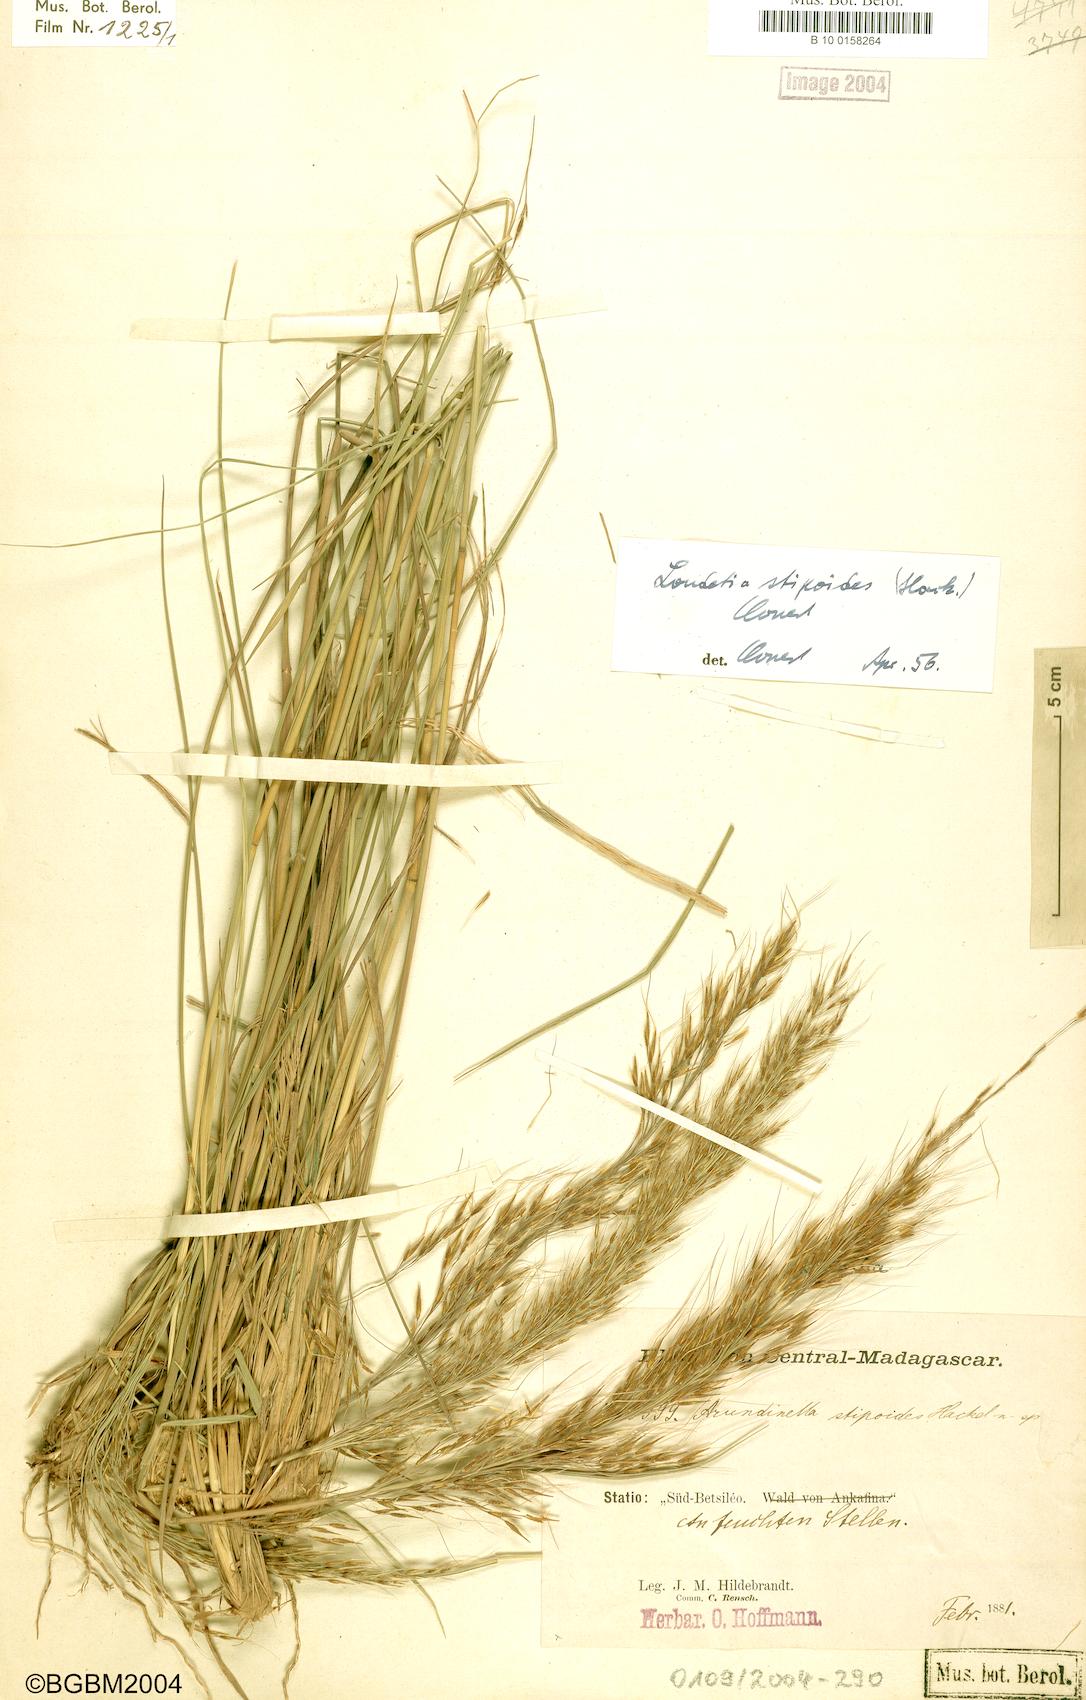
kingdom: Plantae
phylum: Tracheophyta
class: Liliopsida
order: Poales
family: Poaceae
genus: Loudetia
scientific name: Loudetia simplex
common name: Common russet grass
